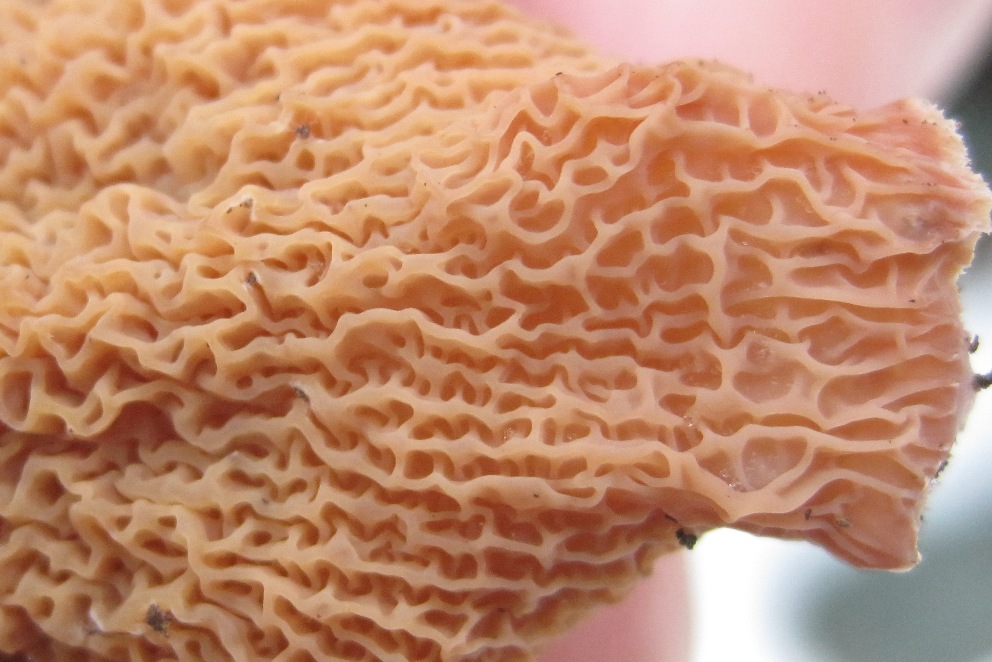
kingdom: Fungi
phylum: Basidiomycota
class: Agaricomycetes
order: Polyporales
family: Meruliaceae
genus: Phlebia
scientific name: Phlebia tremellosa
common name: bævrende åresvamp
